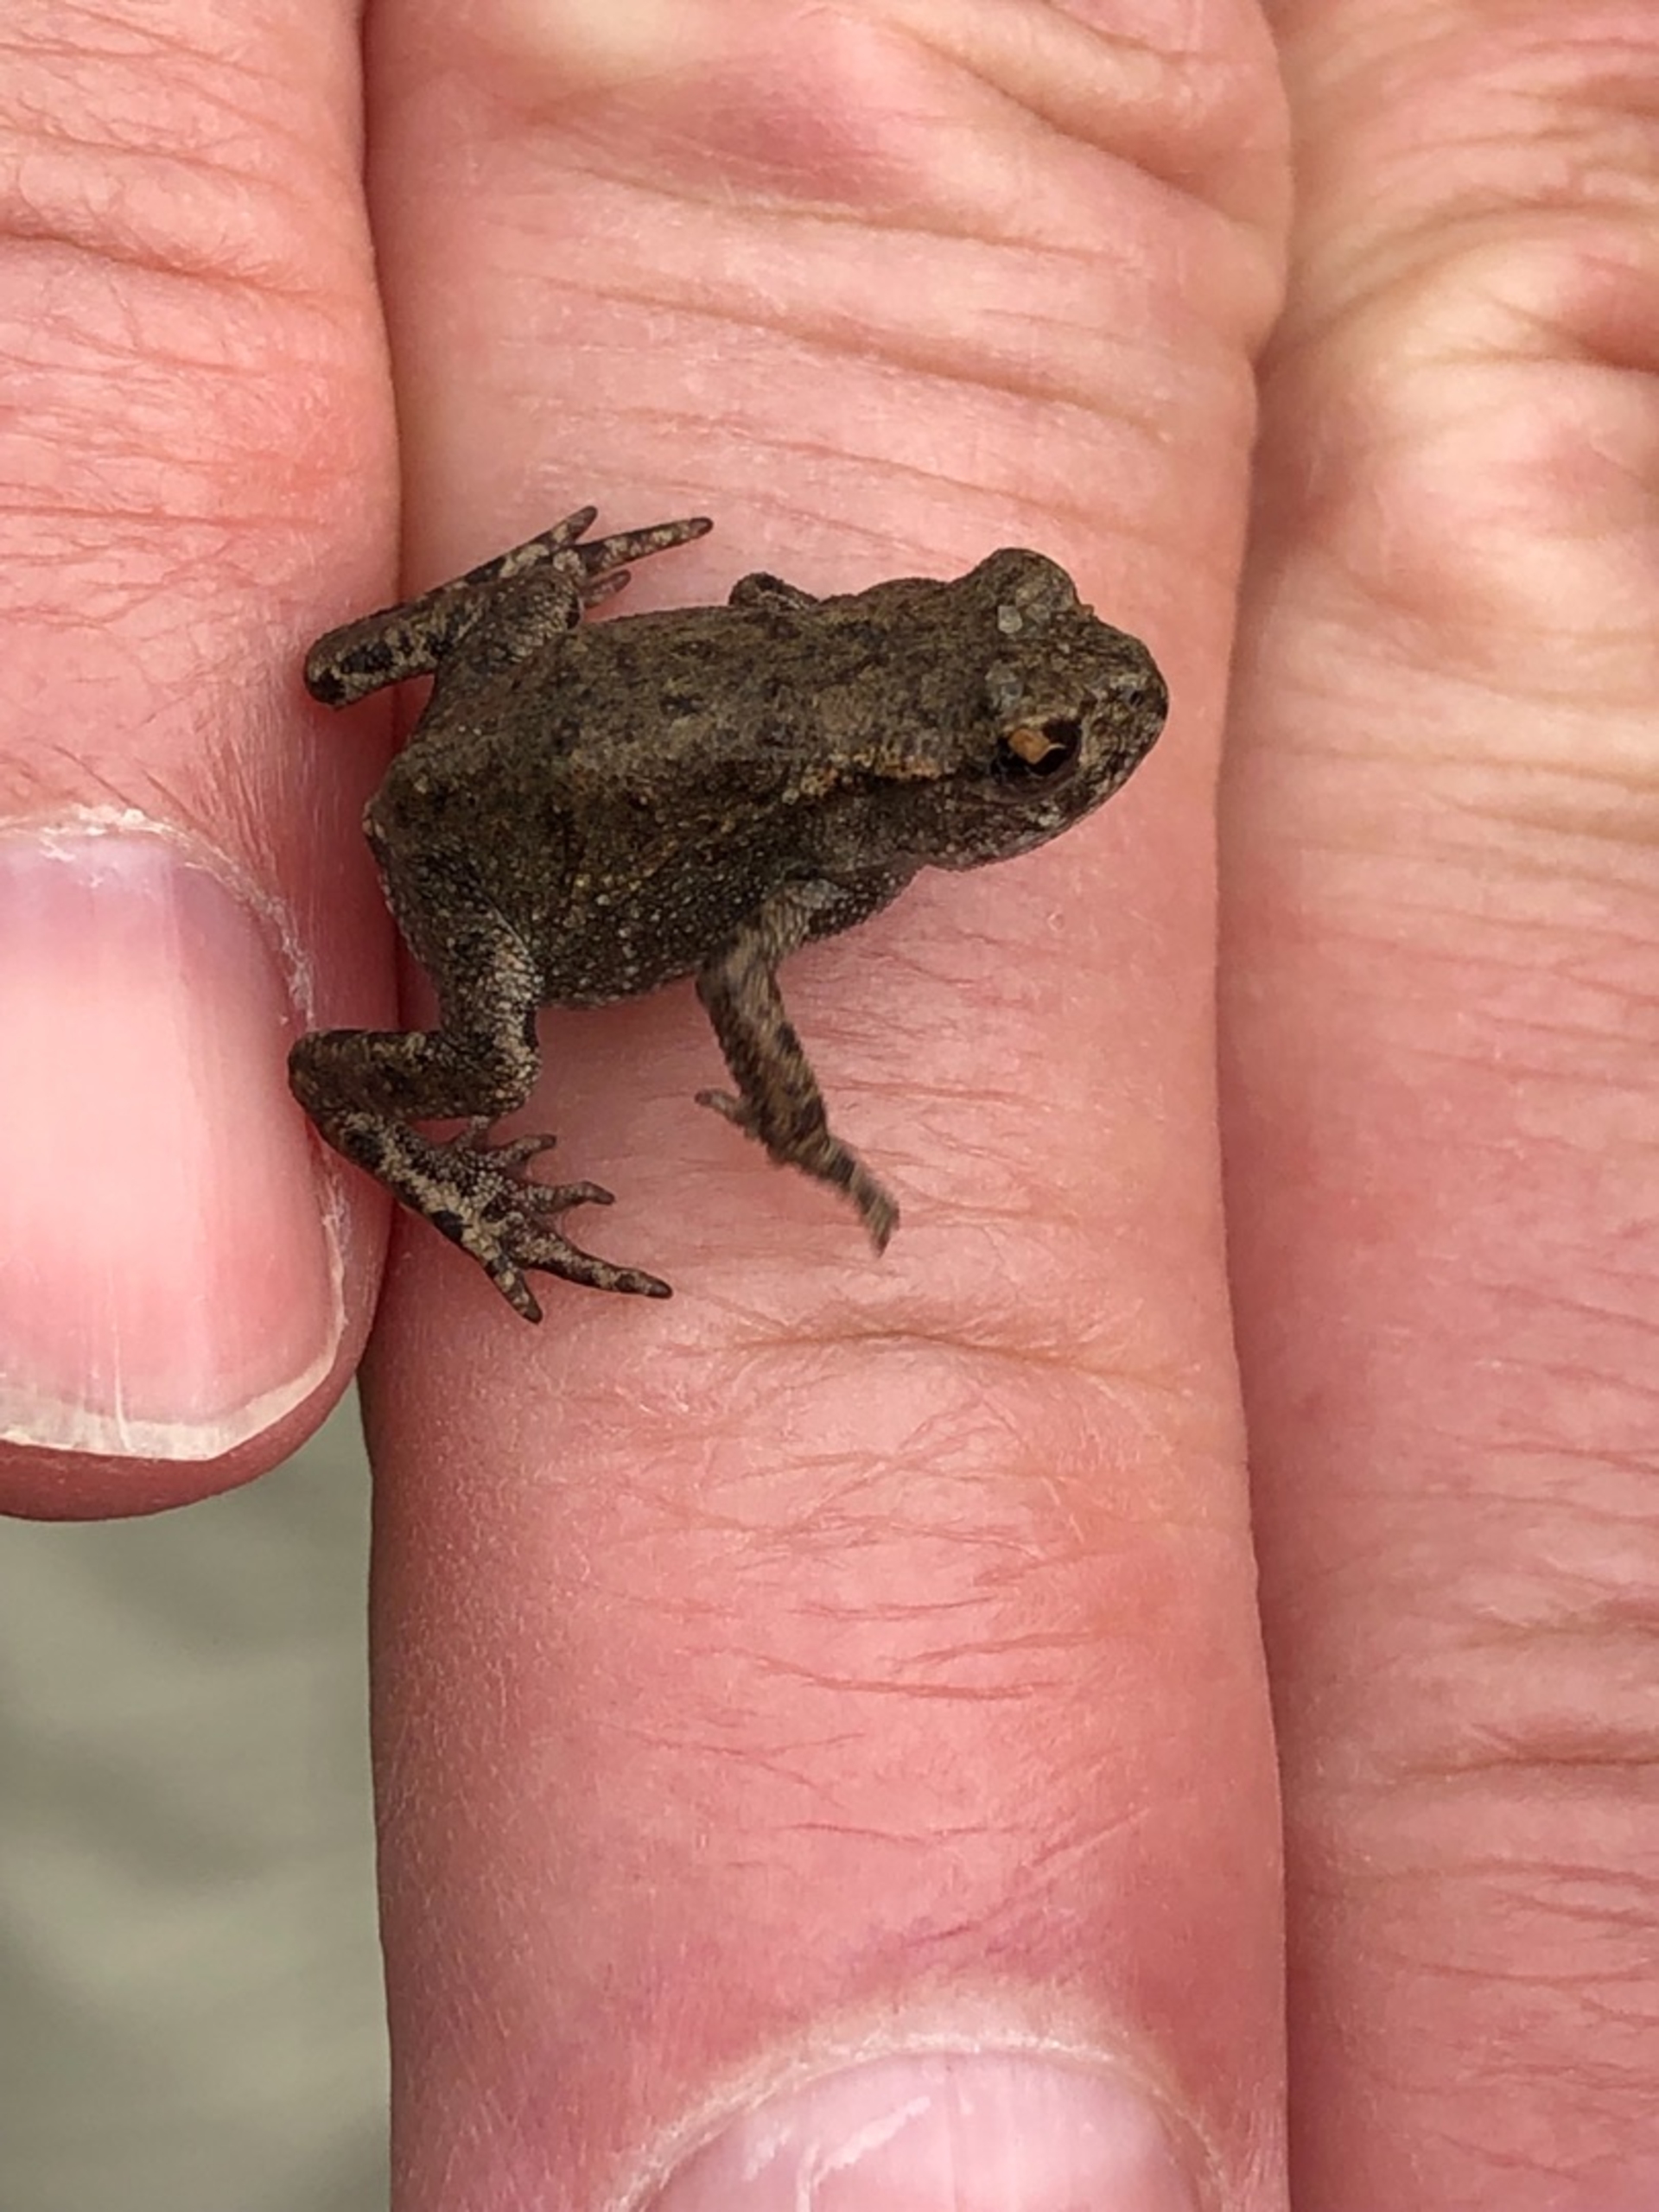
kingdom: Animalia
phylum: Chordata
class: Amphibia
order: Anura
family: Bufonidae
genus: Bufo
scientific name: Bufo bufo
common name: Skrubtudse
